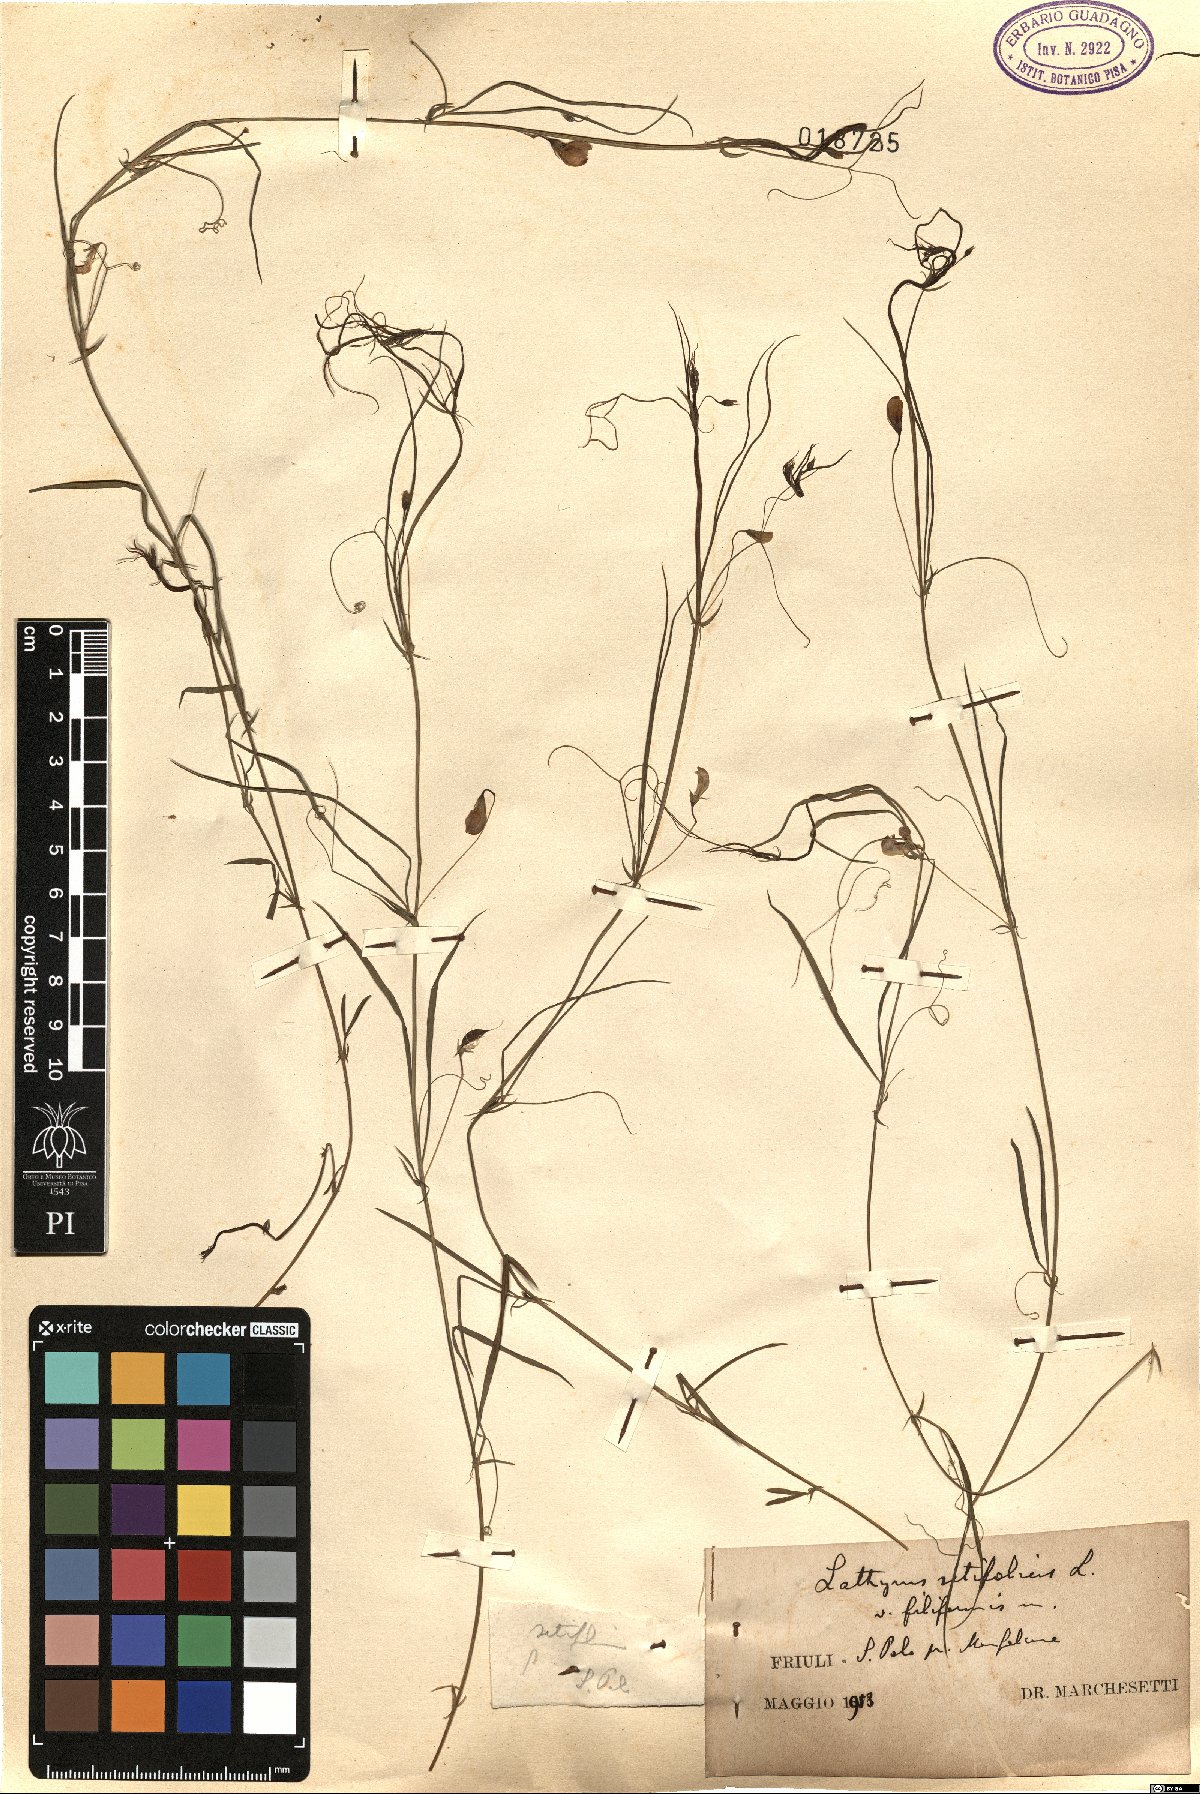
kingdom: Plantae
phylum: Tracheophyta
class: Magnoliopsida
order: Fabales
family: Fabaceae
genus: Lathyrus
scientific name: Lathyrus setifolius
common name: Brown vetchling
